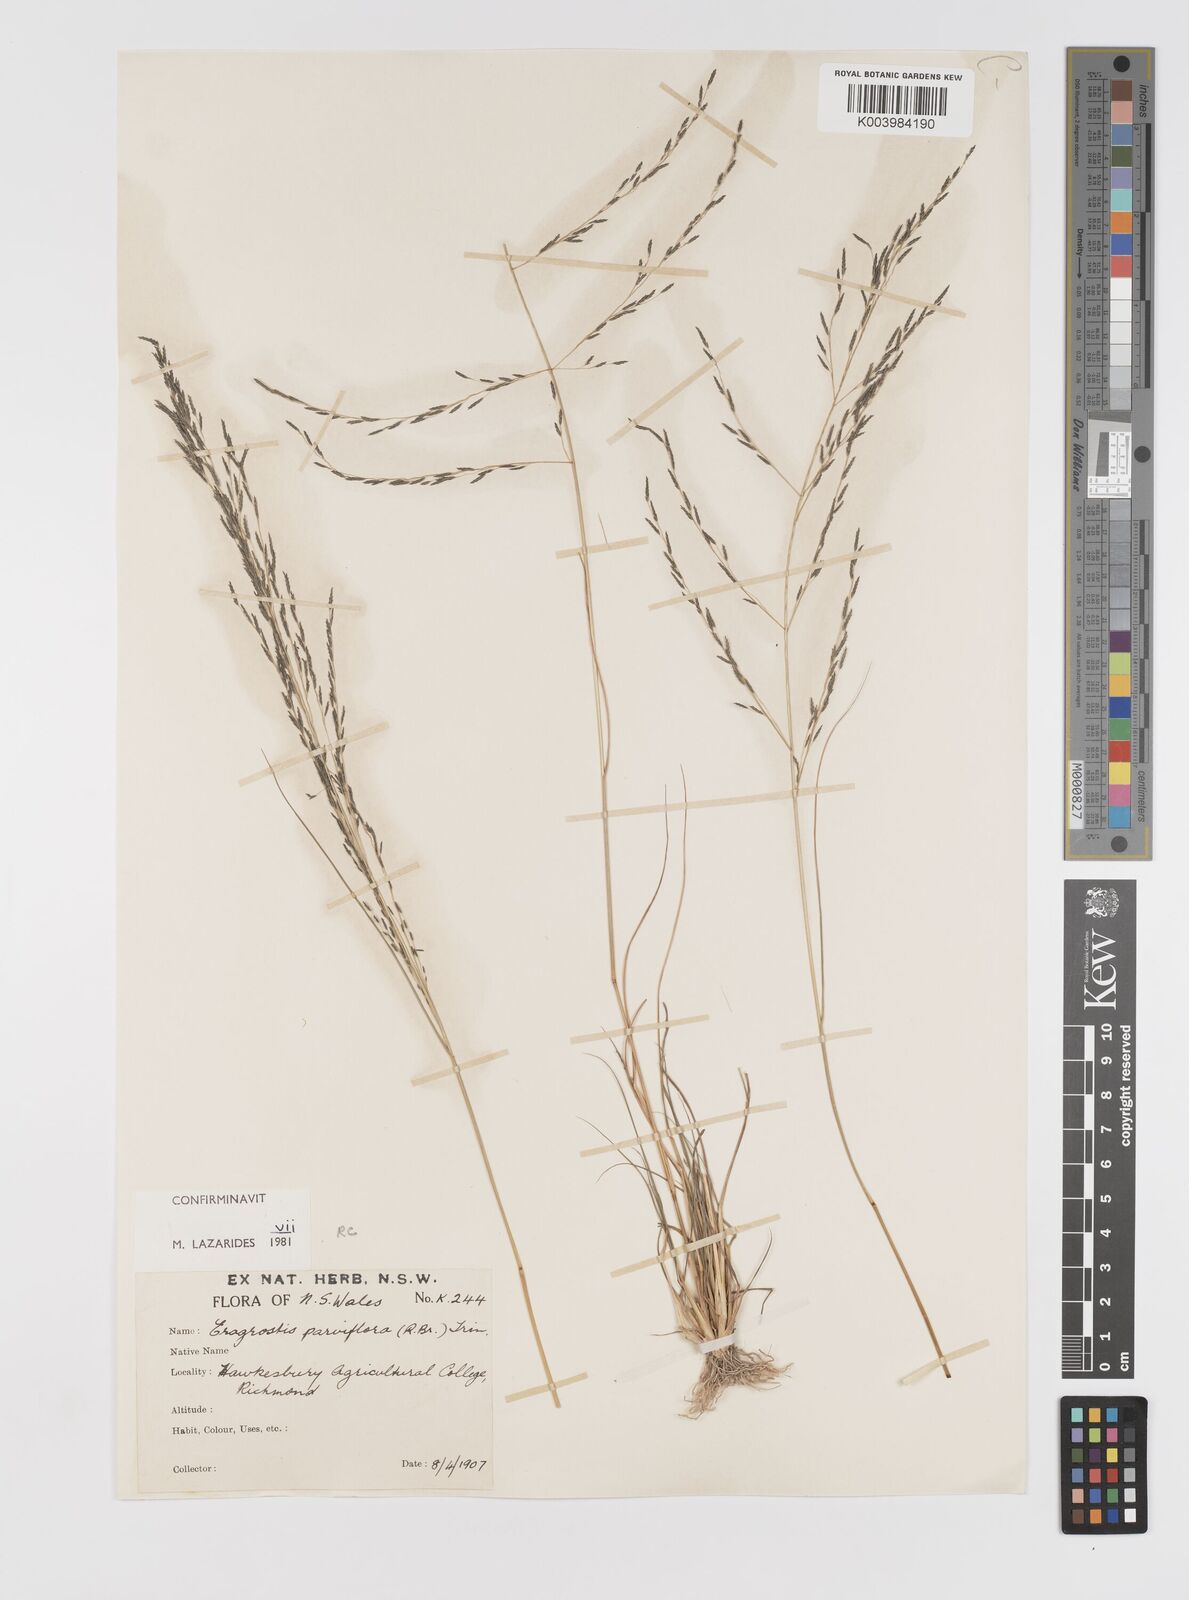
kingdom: Plantae
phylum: Tracheophyta
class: Liliopsida
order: Poales
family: Poaceae
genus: Eragrostis
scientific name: Eragrostis parviflora
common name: Weeping love-grass
